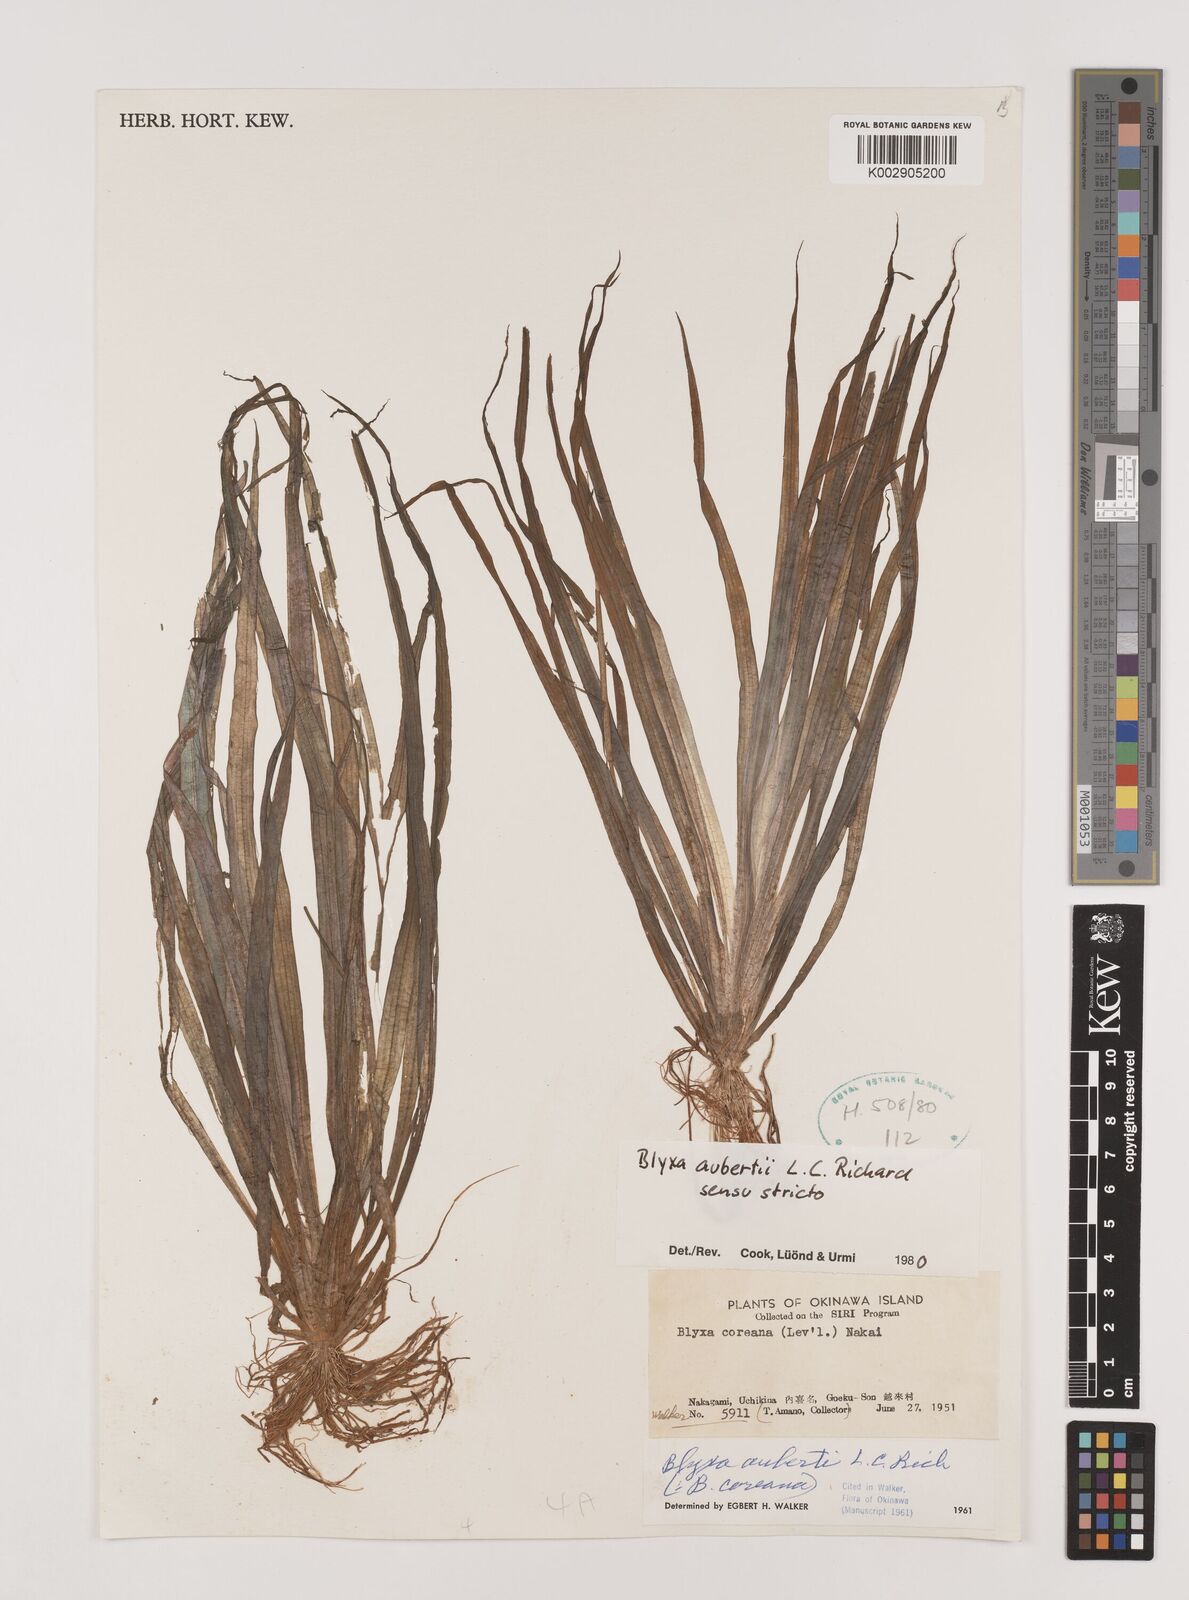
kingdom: Plantae
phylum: Tracheophyta
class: Liliopsida
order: Alismatales
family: Hydrocharitaceae
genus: Blyxa
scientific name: Blyxa aubertii
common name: Roundfruit blyxa
